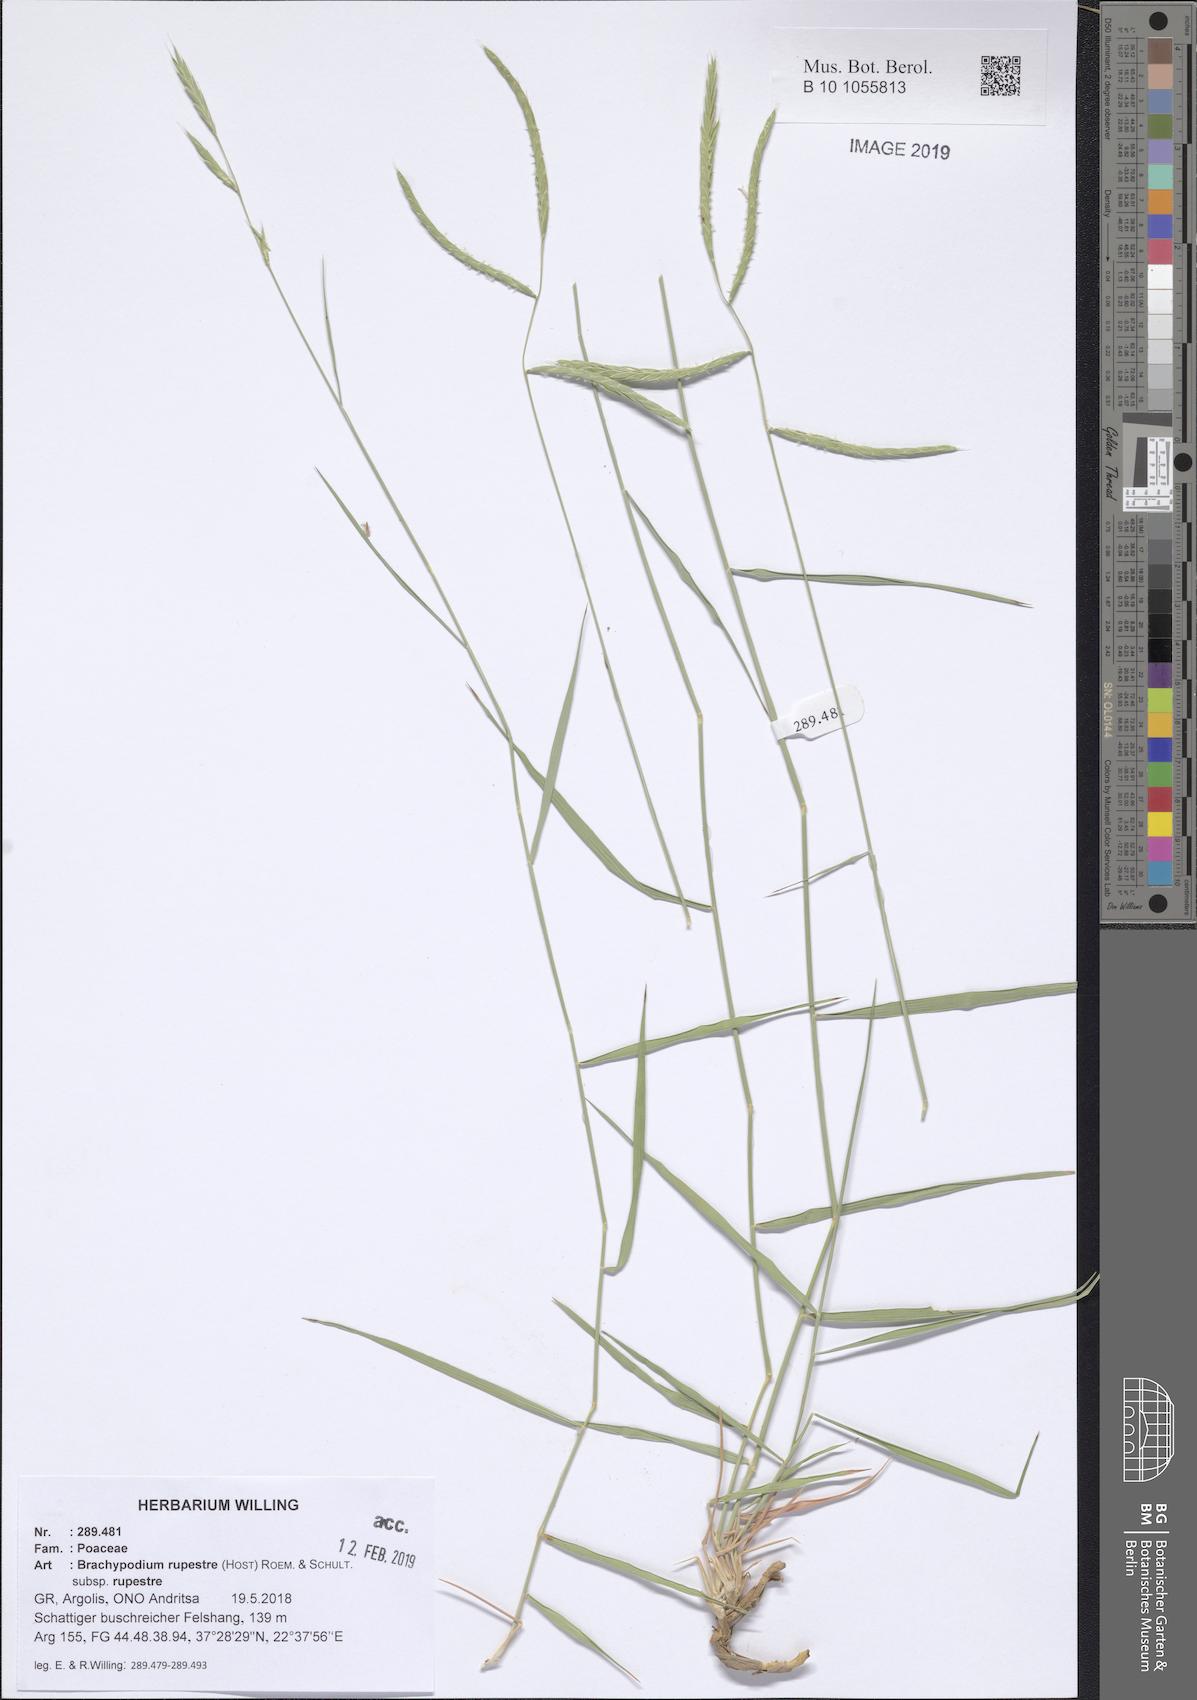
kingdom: Plantae
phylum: Tracheophyta
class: Liliopsida
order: Poales
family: Poaceae
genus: Brachypodium
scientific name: Brachypodium pinnatum
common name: Tor grass
